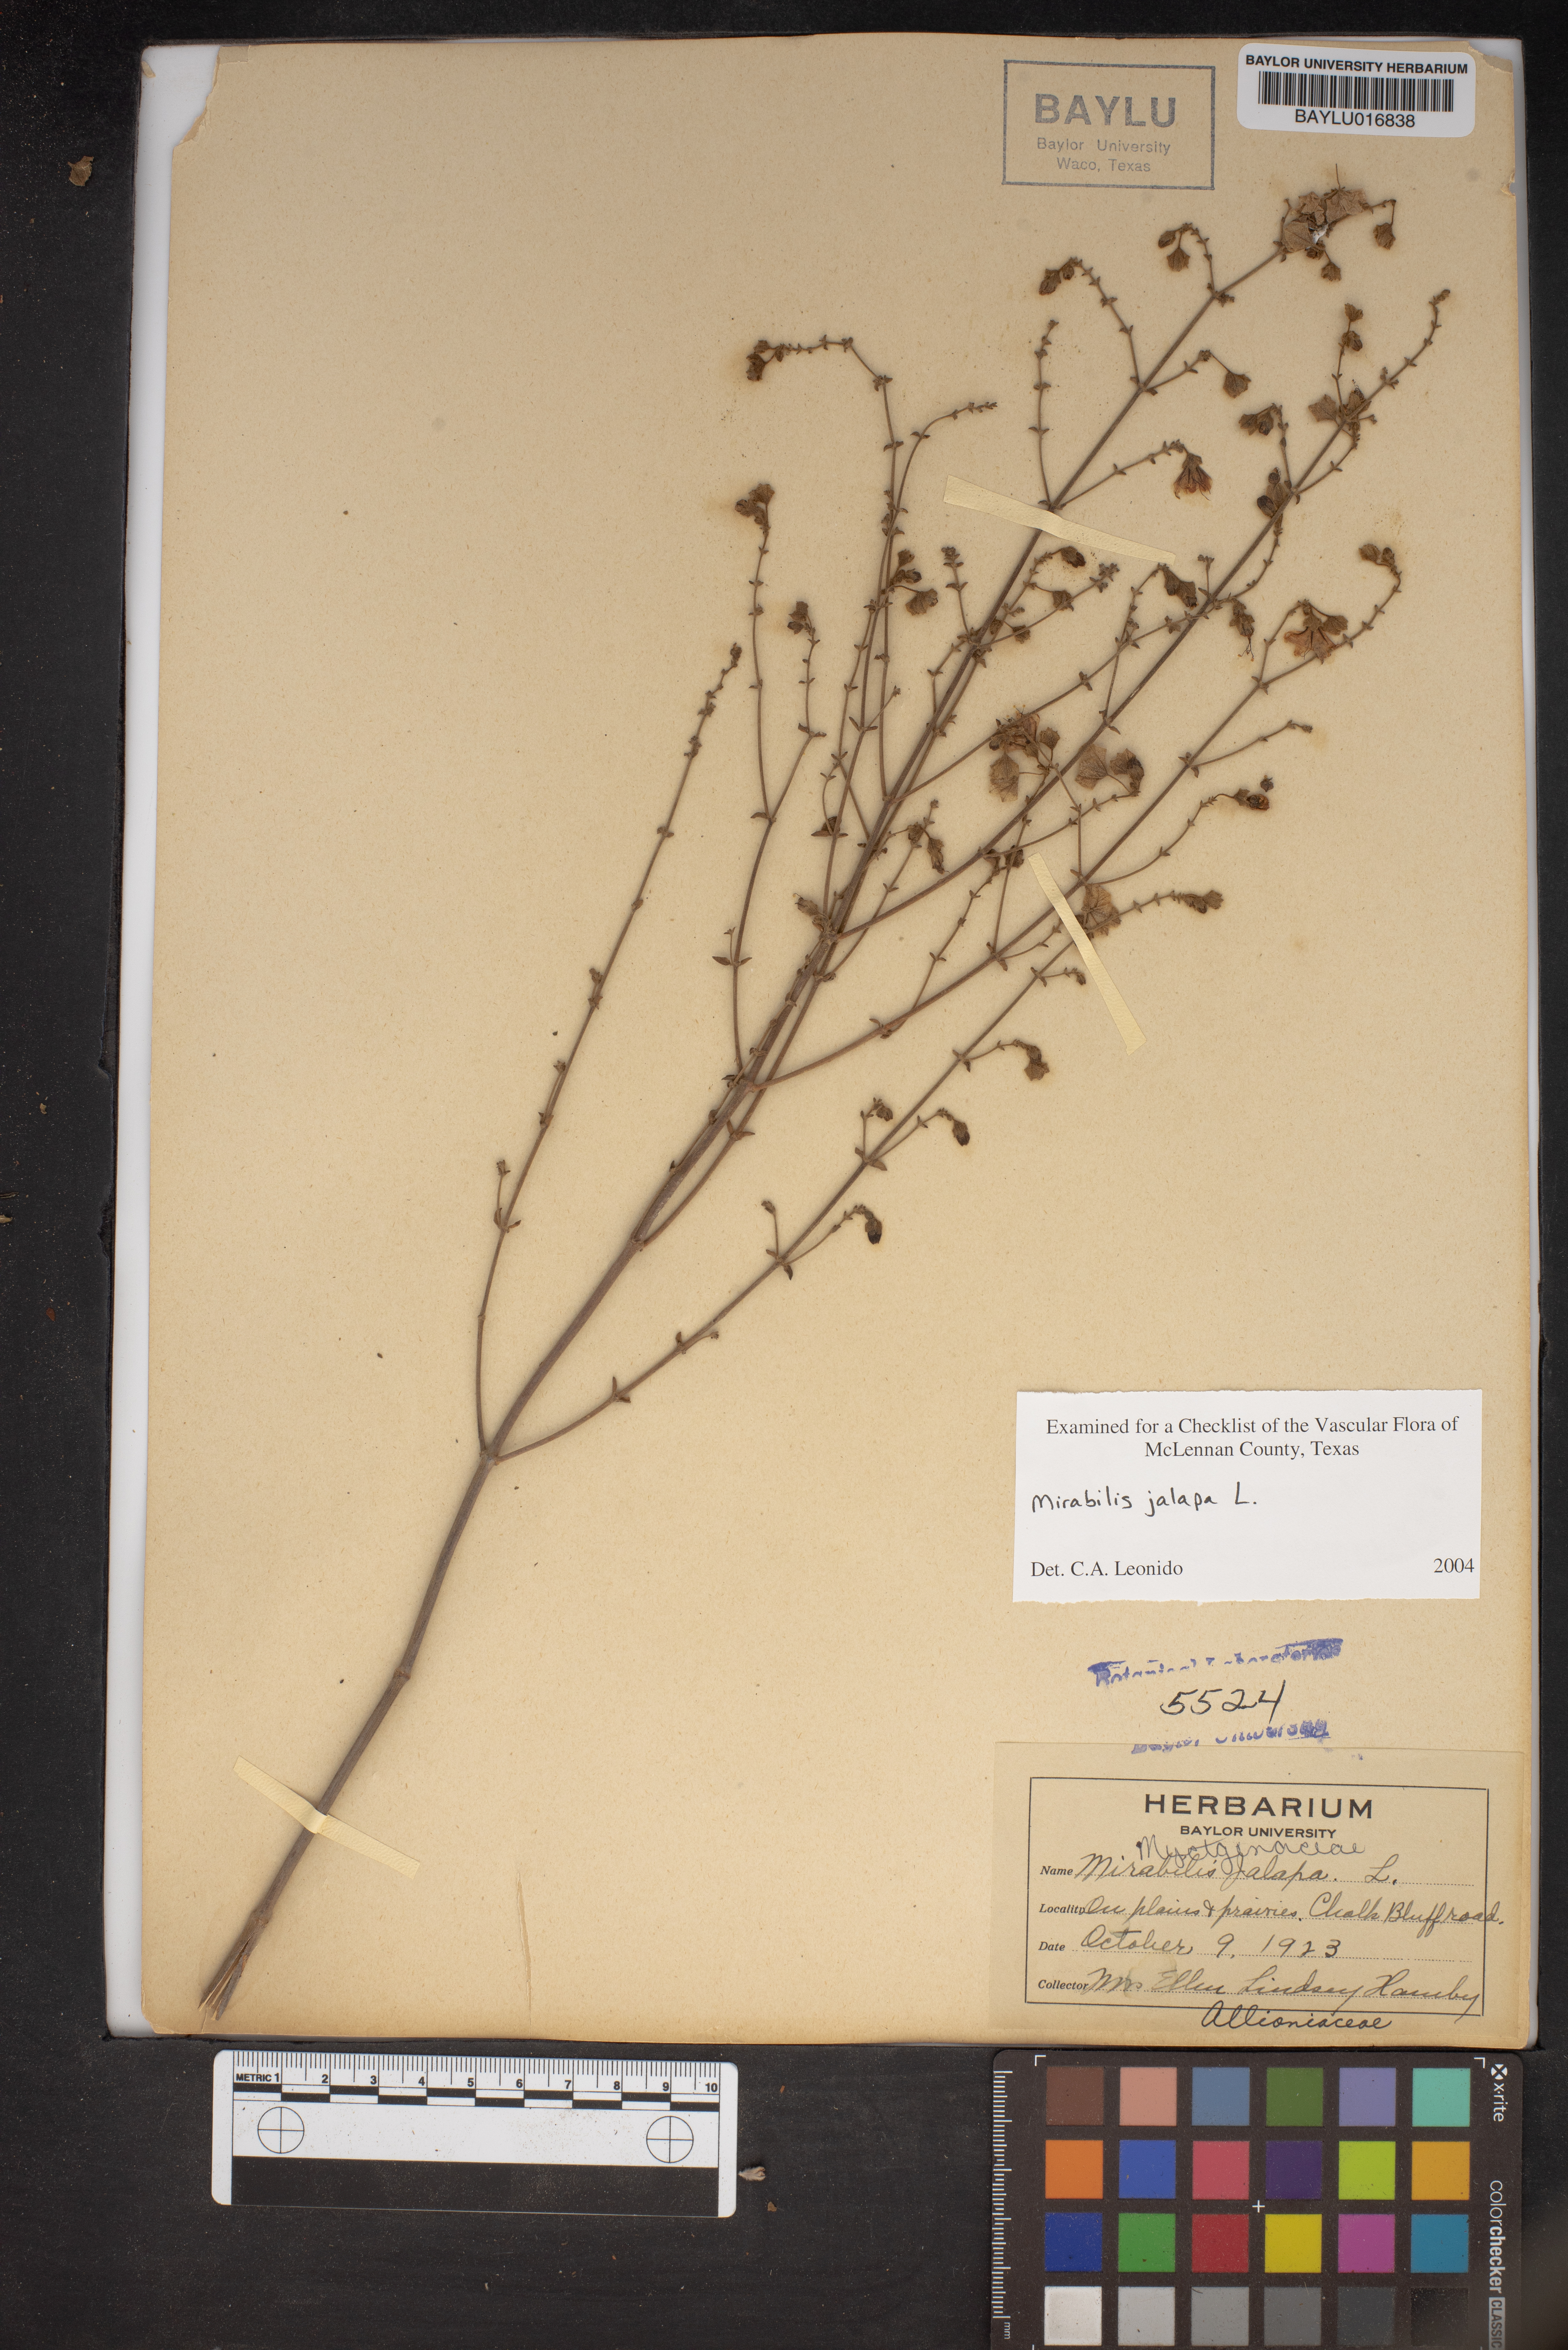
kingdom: Plantae
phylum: Tracheophyta
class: Magnoliopsida
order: Caryophyllales
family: Nyctaginaceae
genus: Mirabilis
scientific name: Mirabilis jalapa
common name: Marvel-of-peru
